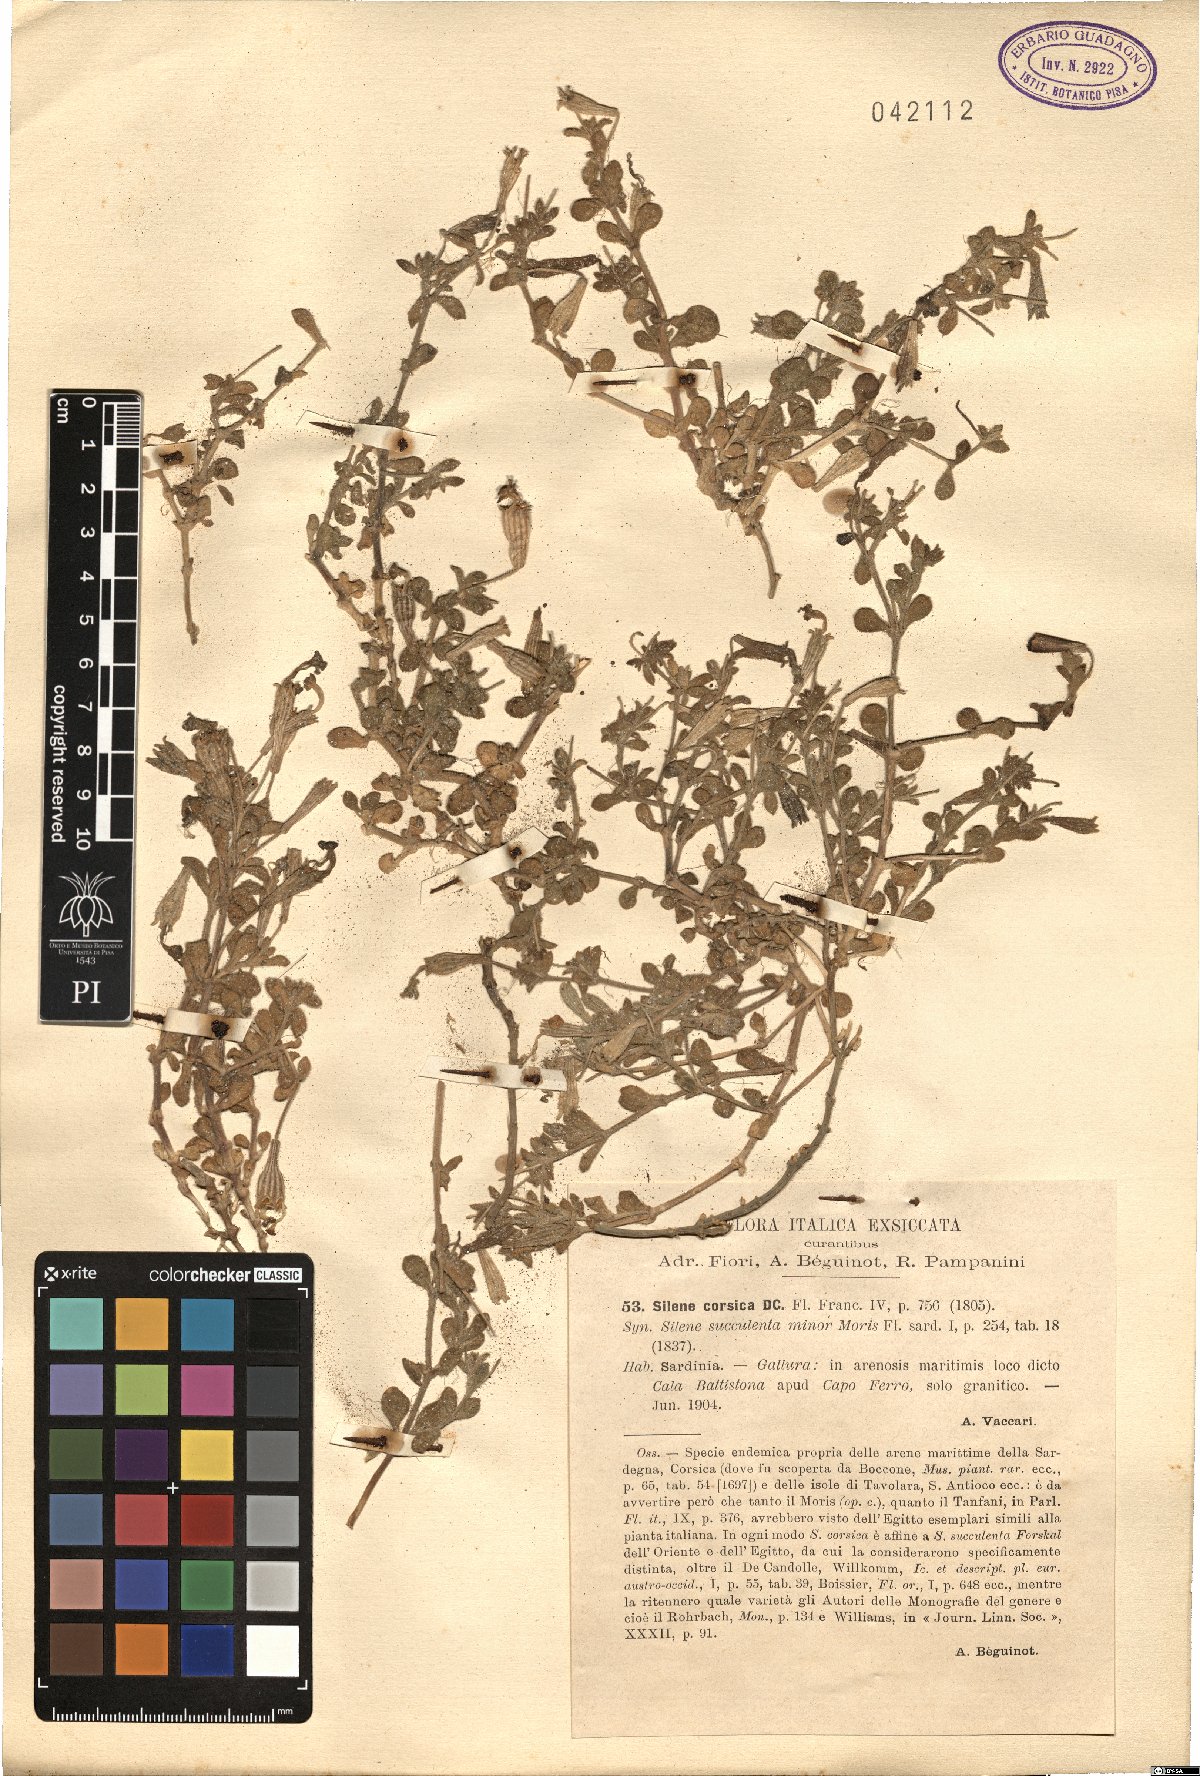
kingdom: Plantae
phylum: Tracheophyta
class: Magnoliopsida
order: Caryophyllales
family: Caryophyllaceae
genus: Silene
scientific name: Silene succulenta
